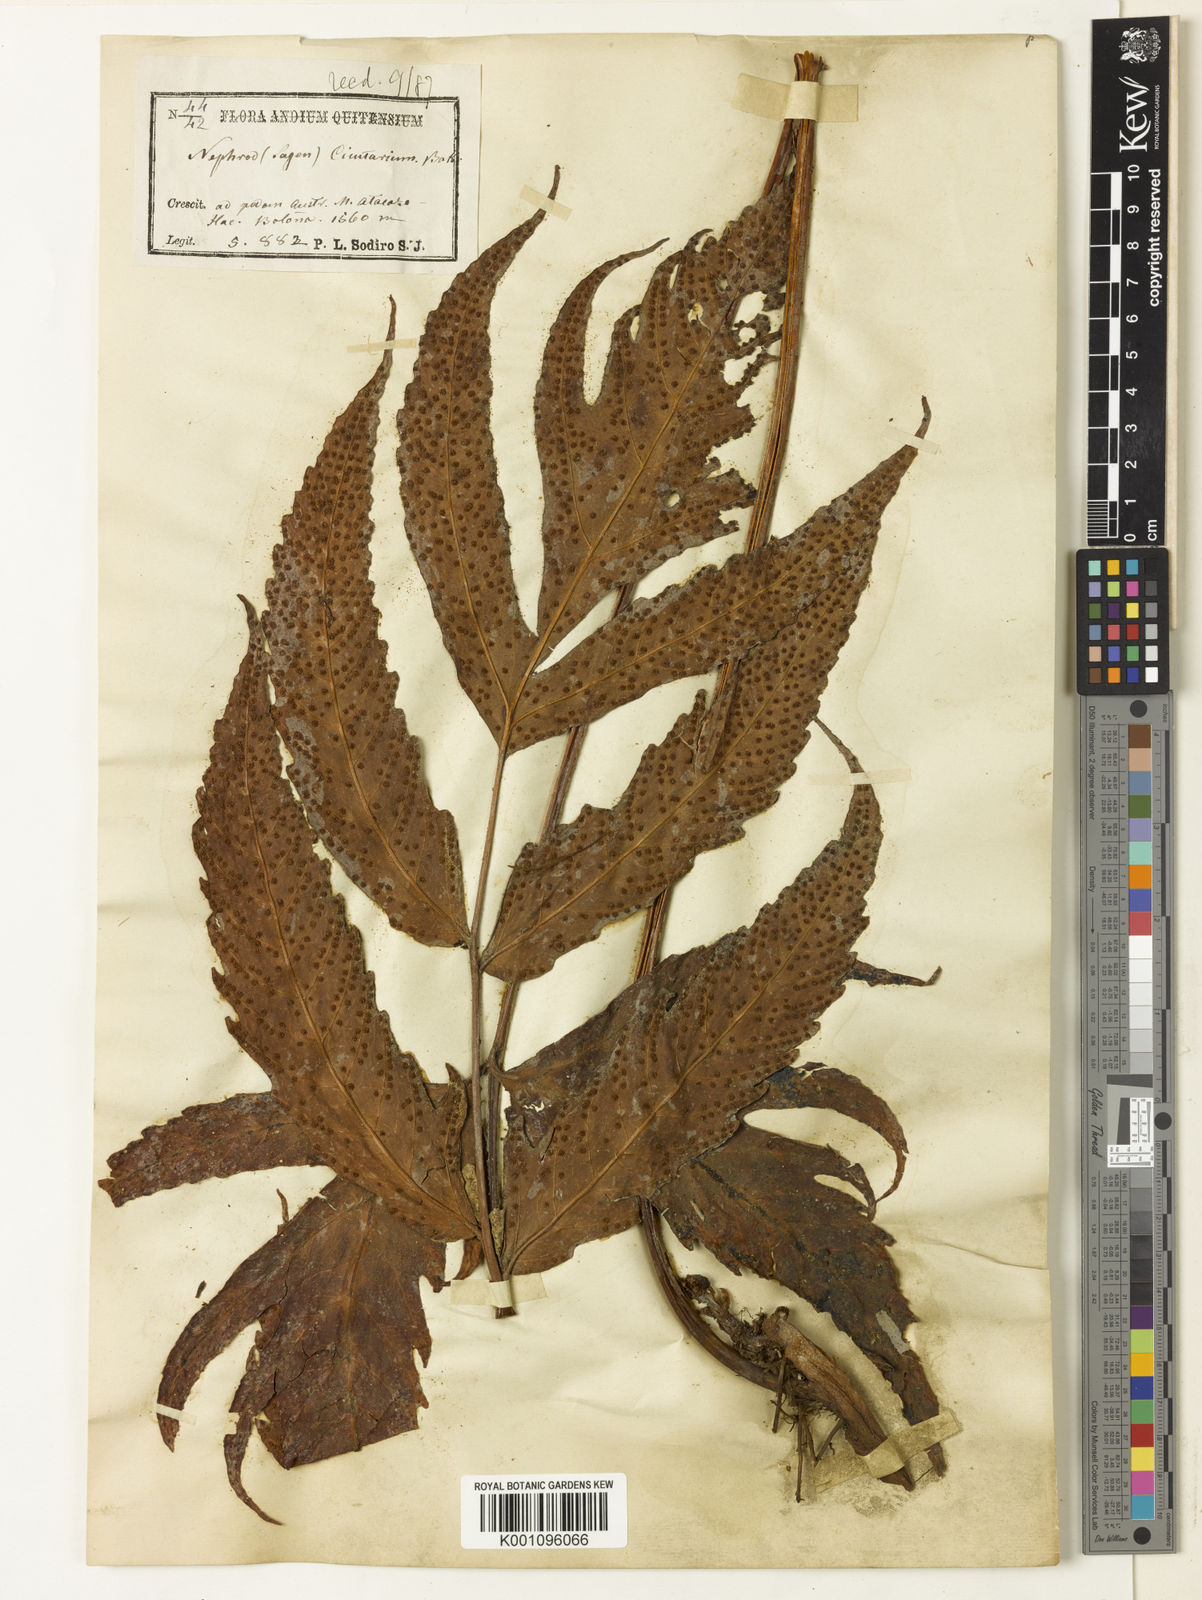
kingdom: Plantae
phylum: Tracheophyta
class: Polypodiopsida
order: Polypodiales
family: Tectariaceae
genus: Tectaria
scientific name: Tectaria lizarzaburui
